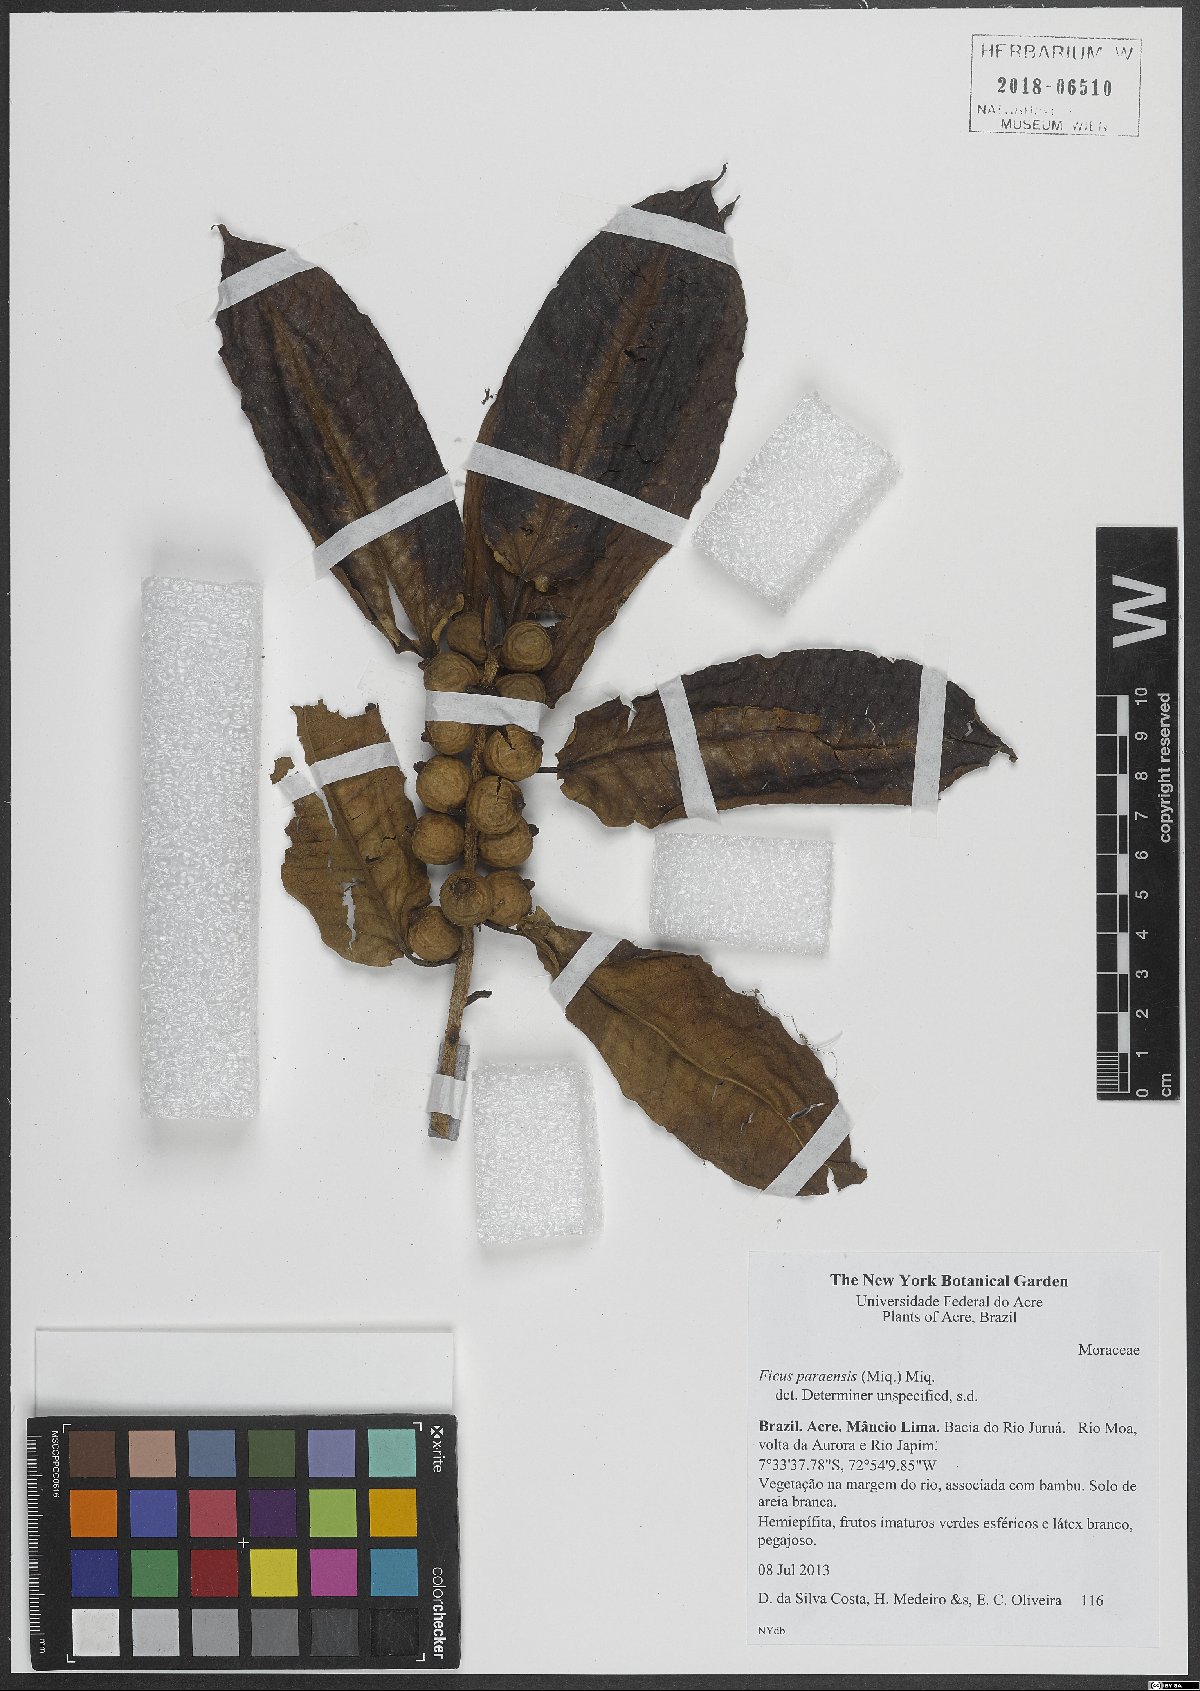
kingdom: Plantae
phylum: Tracheophyta
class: Magnoliopsida
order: Rosales
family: Moraceae
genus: Ficus
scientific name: Ficus paraensis
